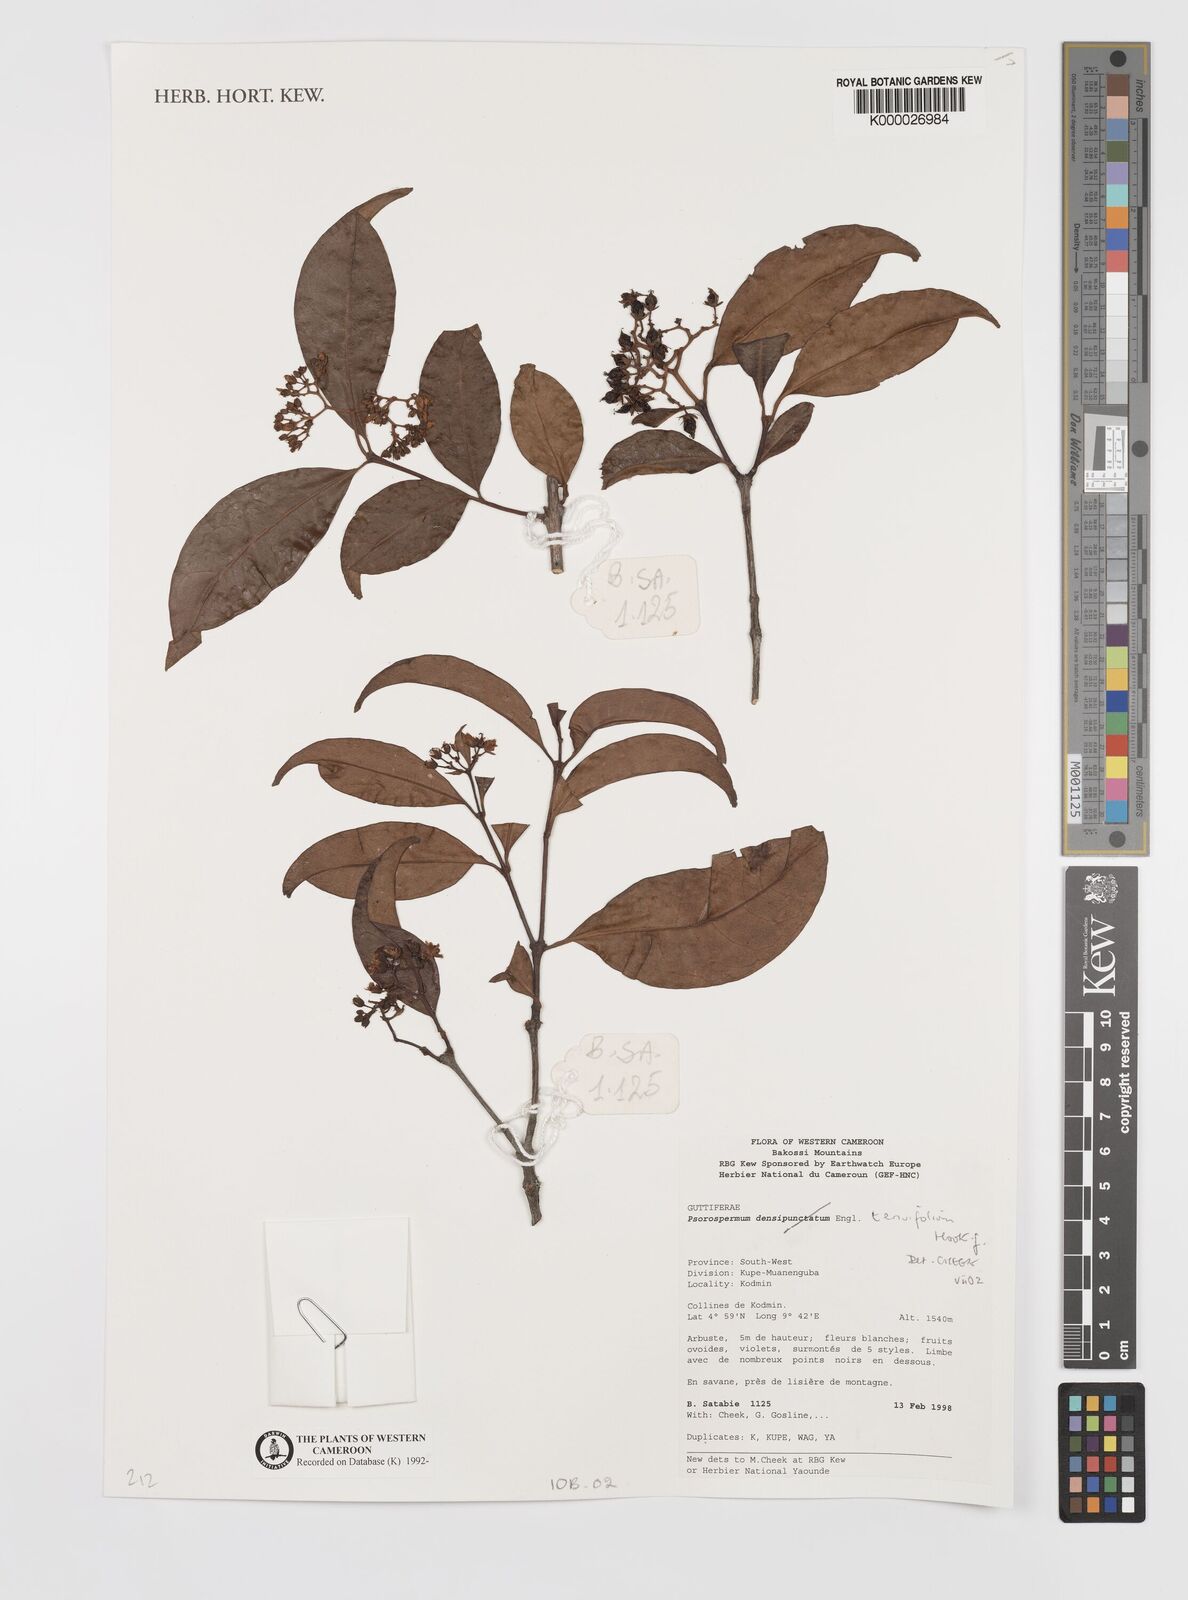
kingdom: Plantae
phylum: Tracheophyta
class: Magnoliopsida
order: Malpighiales
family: Hypericaceae
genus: Psorospermum
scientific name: Psorospermum tenuifolium
